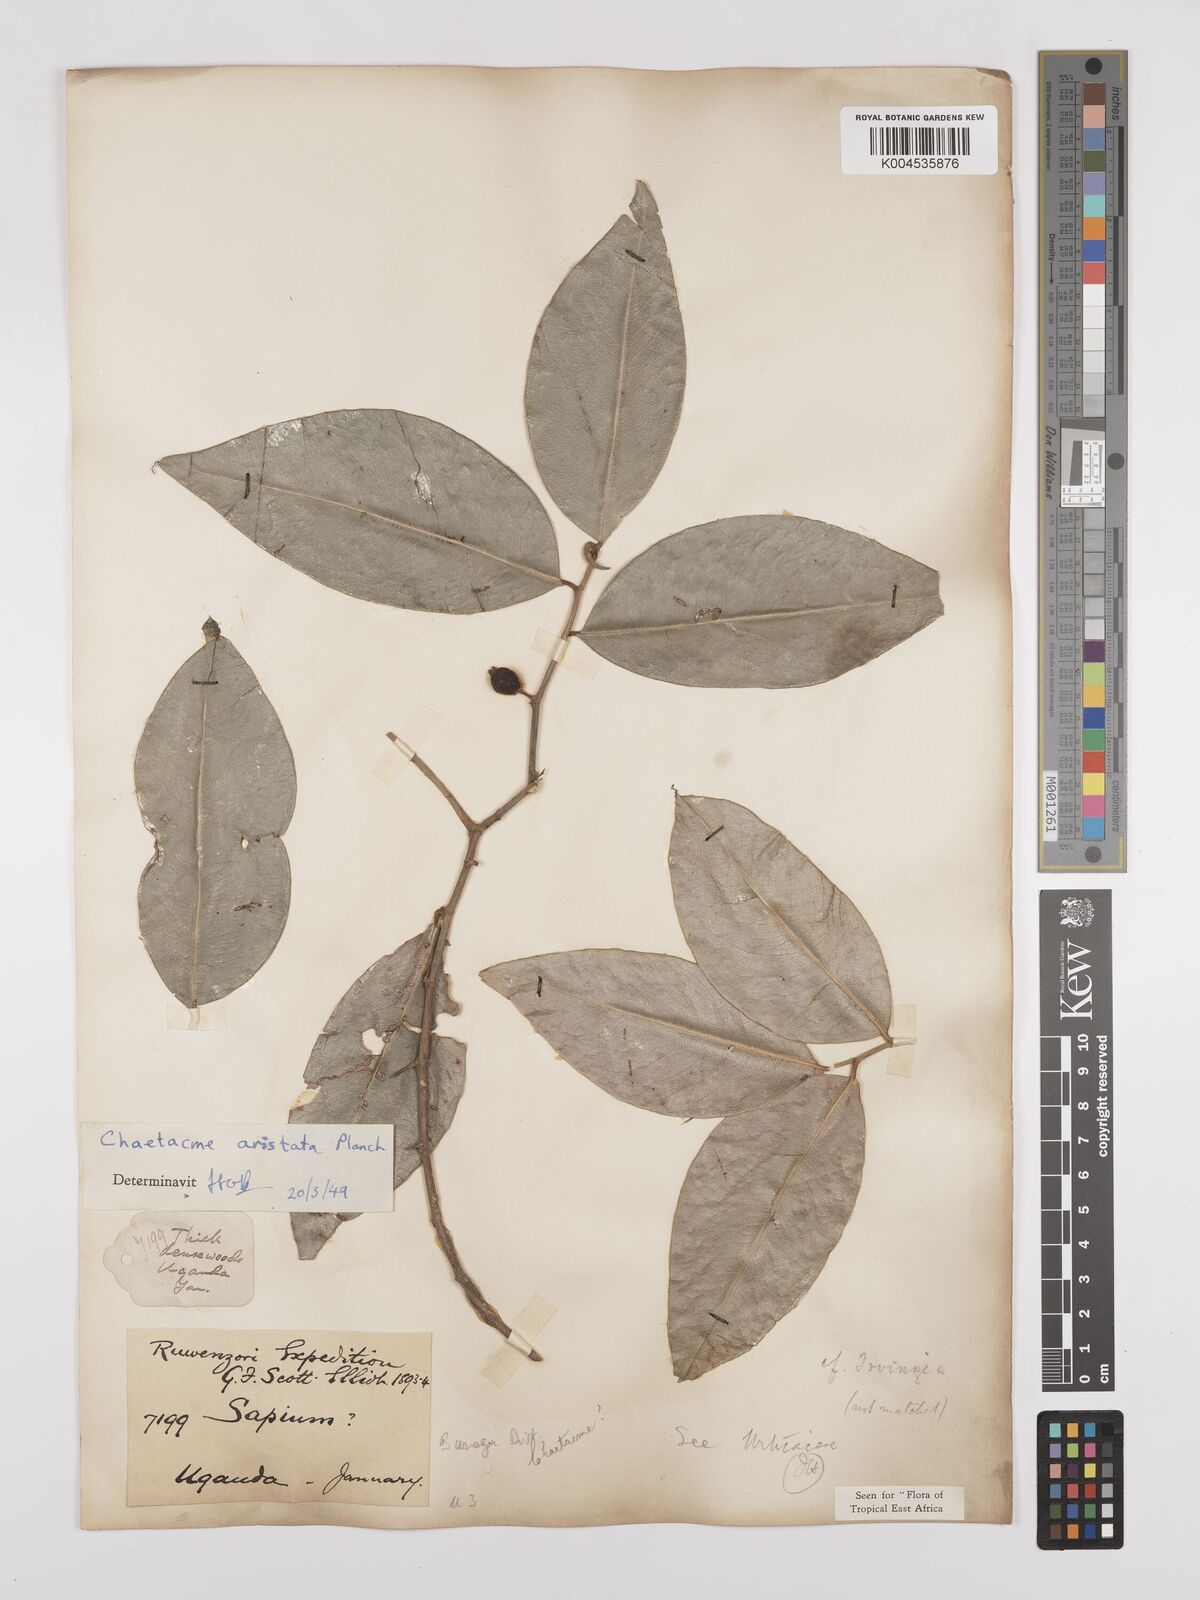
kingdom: Plantae
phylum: Tracheophyta
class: Magnoliopsida
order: Rosales
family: Cannabaceae
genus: Chaetachme
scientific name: Chaetachme aristata
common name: Thorny elm
